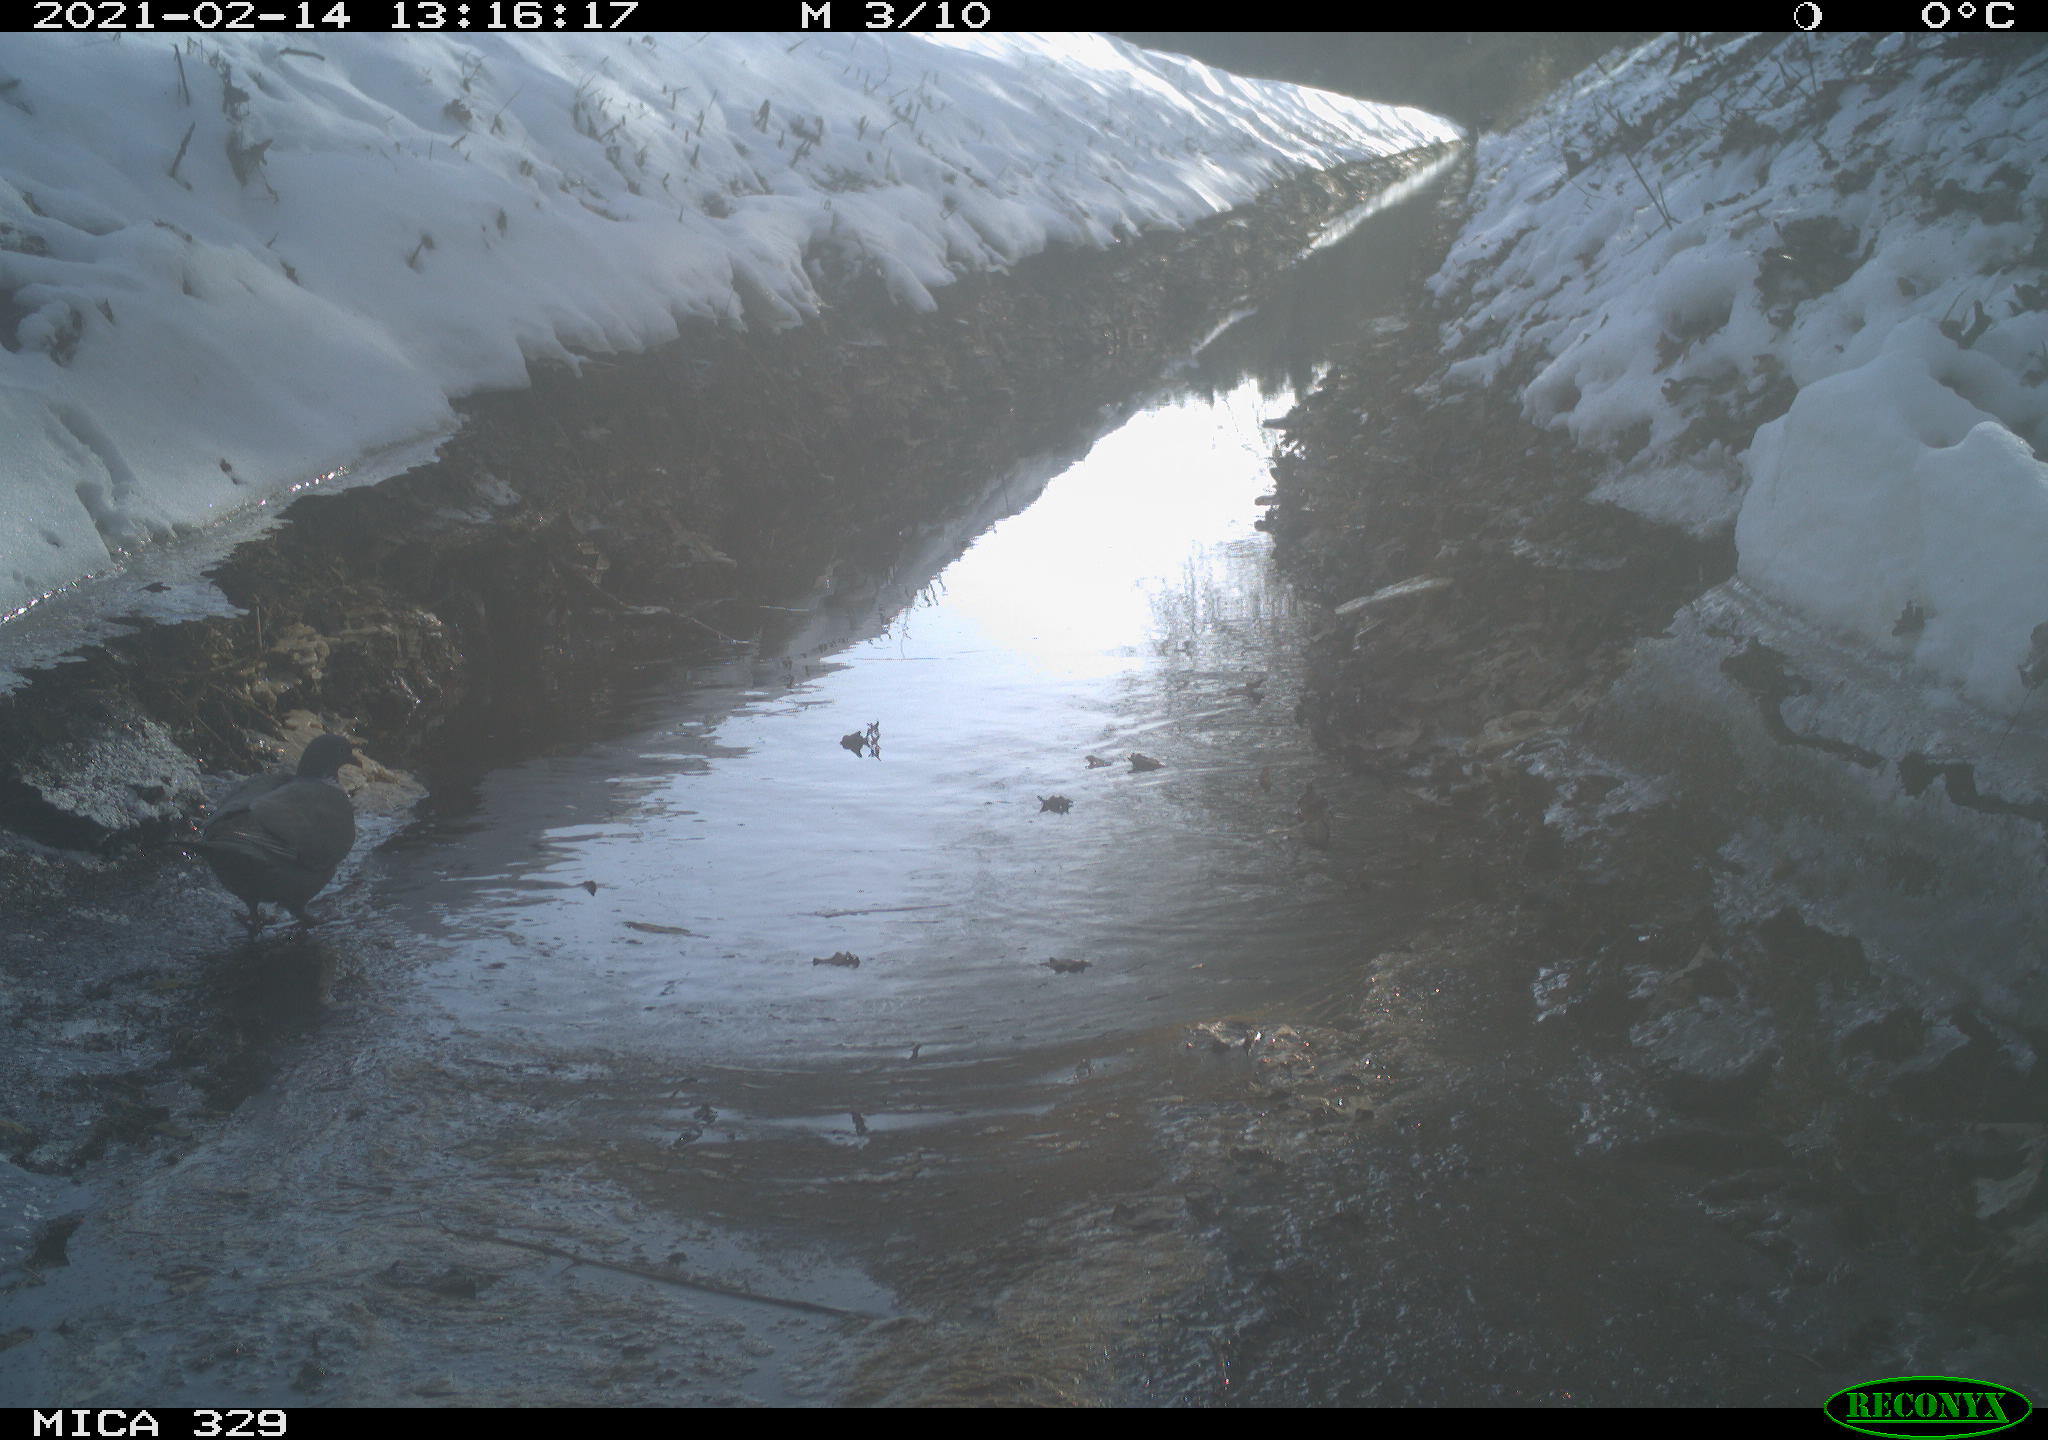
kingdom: Animalia
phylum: Chordata
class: Aves
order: Columbiformes
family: Columbidae
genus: Columba
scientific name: Columba palumbus
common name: Common wood pigeon
